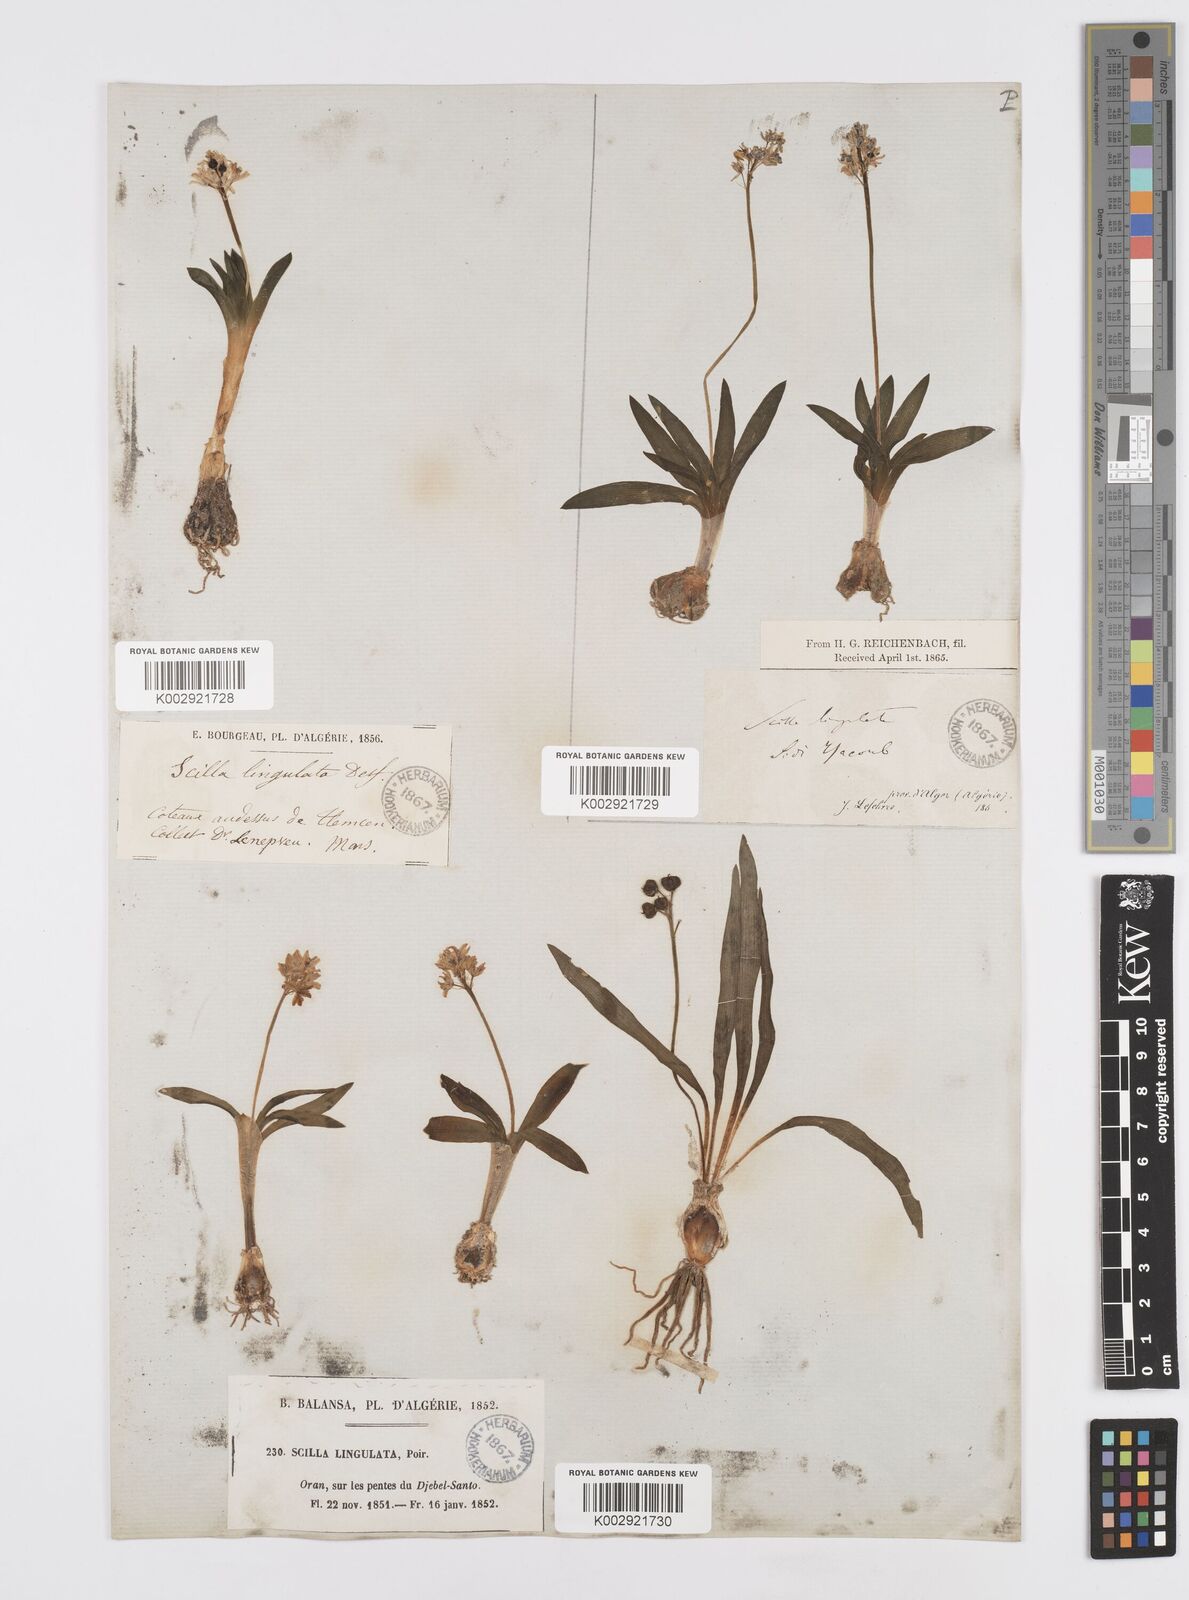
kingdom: Plantae
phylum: Tracheophyta
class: Liliopsida
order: Asparagales
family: Asparagaceae
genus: Hyacinthoides
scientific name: Hyacinthoides lingulata
